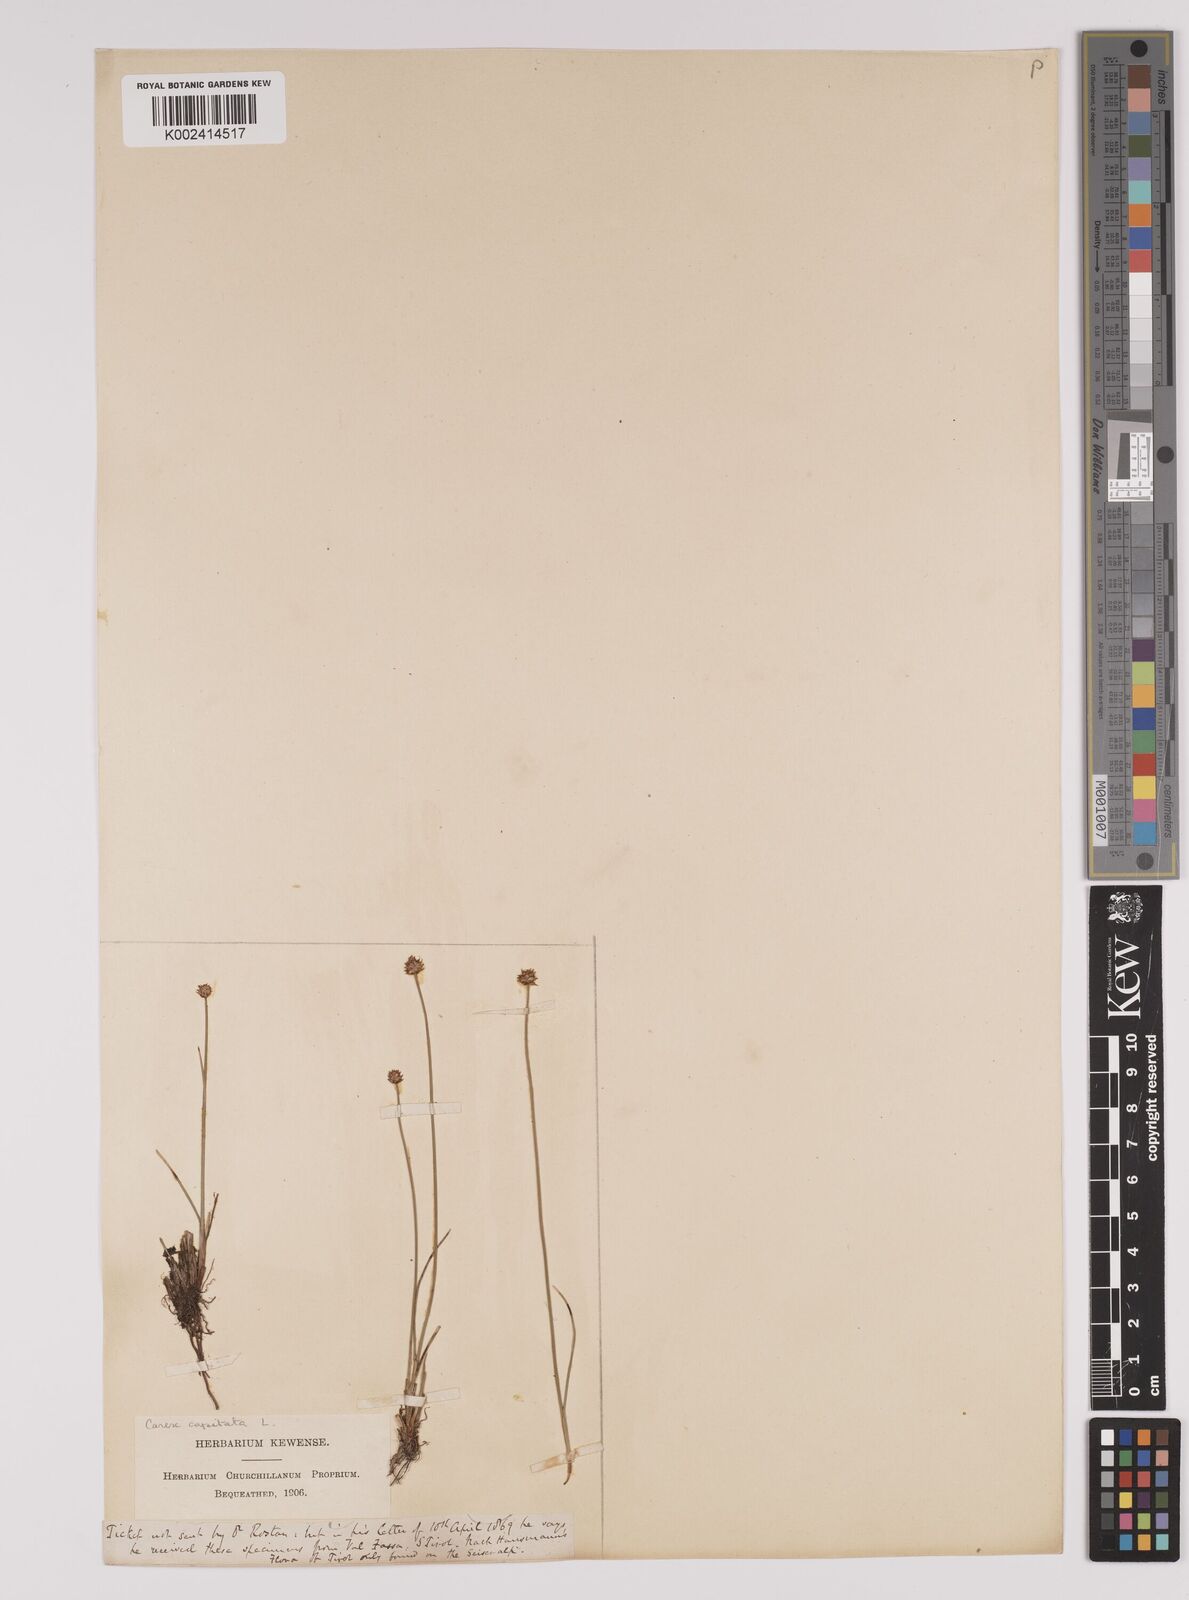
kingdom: Plantae
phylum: Tracheophyta
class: Liliopsida
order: Poales
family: Cyperaceae
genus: Carex
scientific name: Carex capitata
